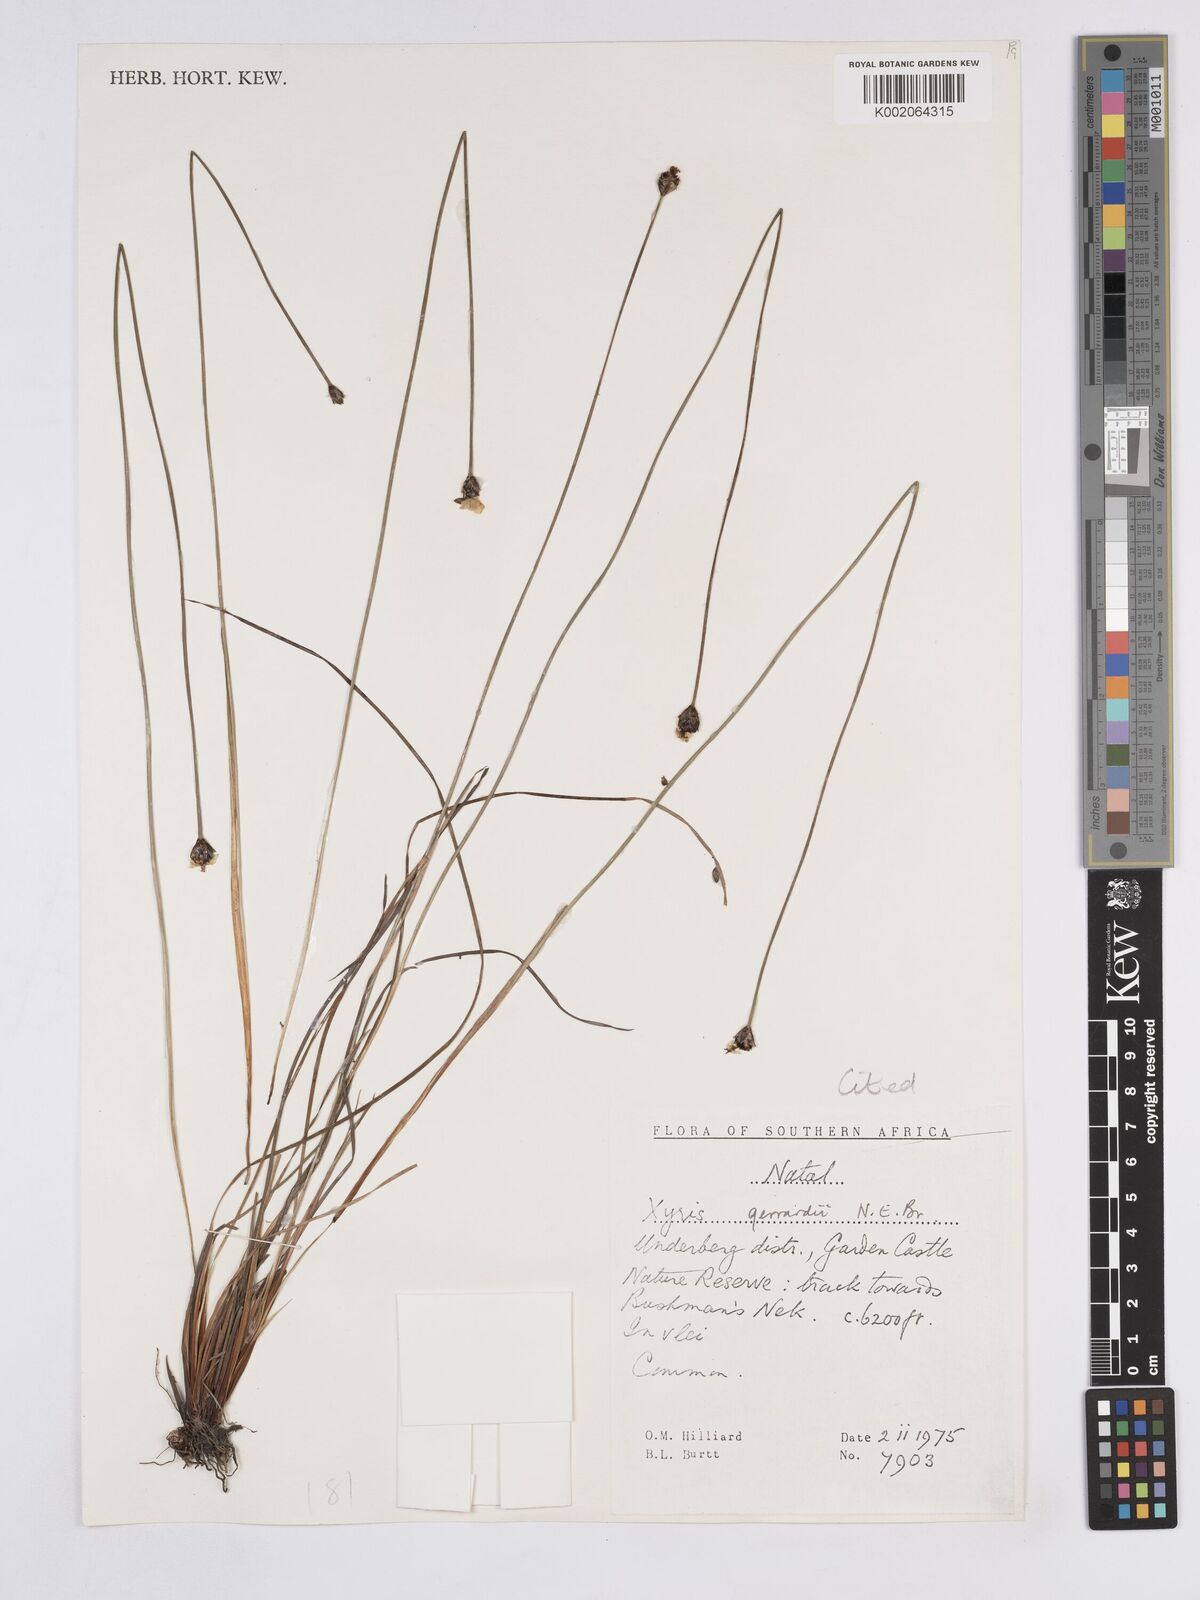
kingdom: Plantae
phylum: Tracheophyta
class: Liliopsida
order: Poales
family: Xyridaceae
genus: Xyris
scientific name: Xyris gerrardii
